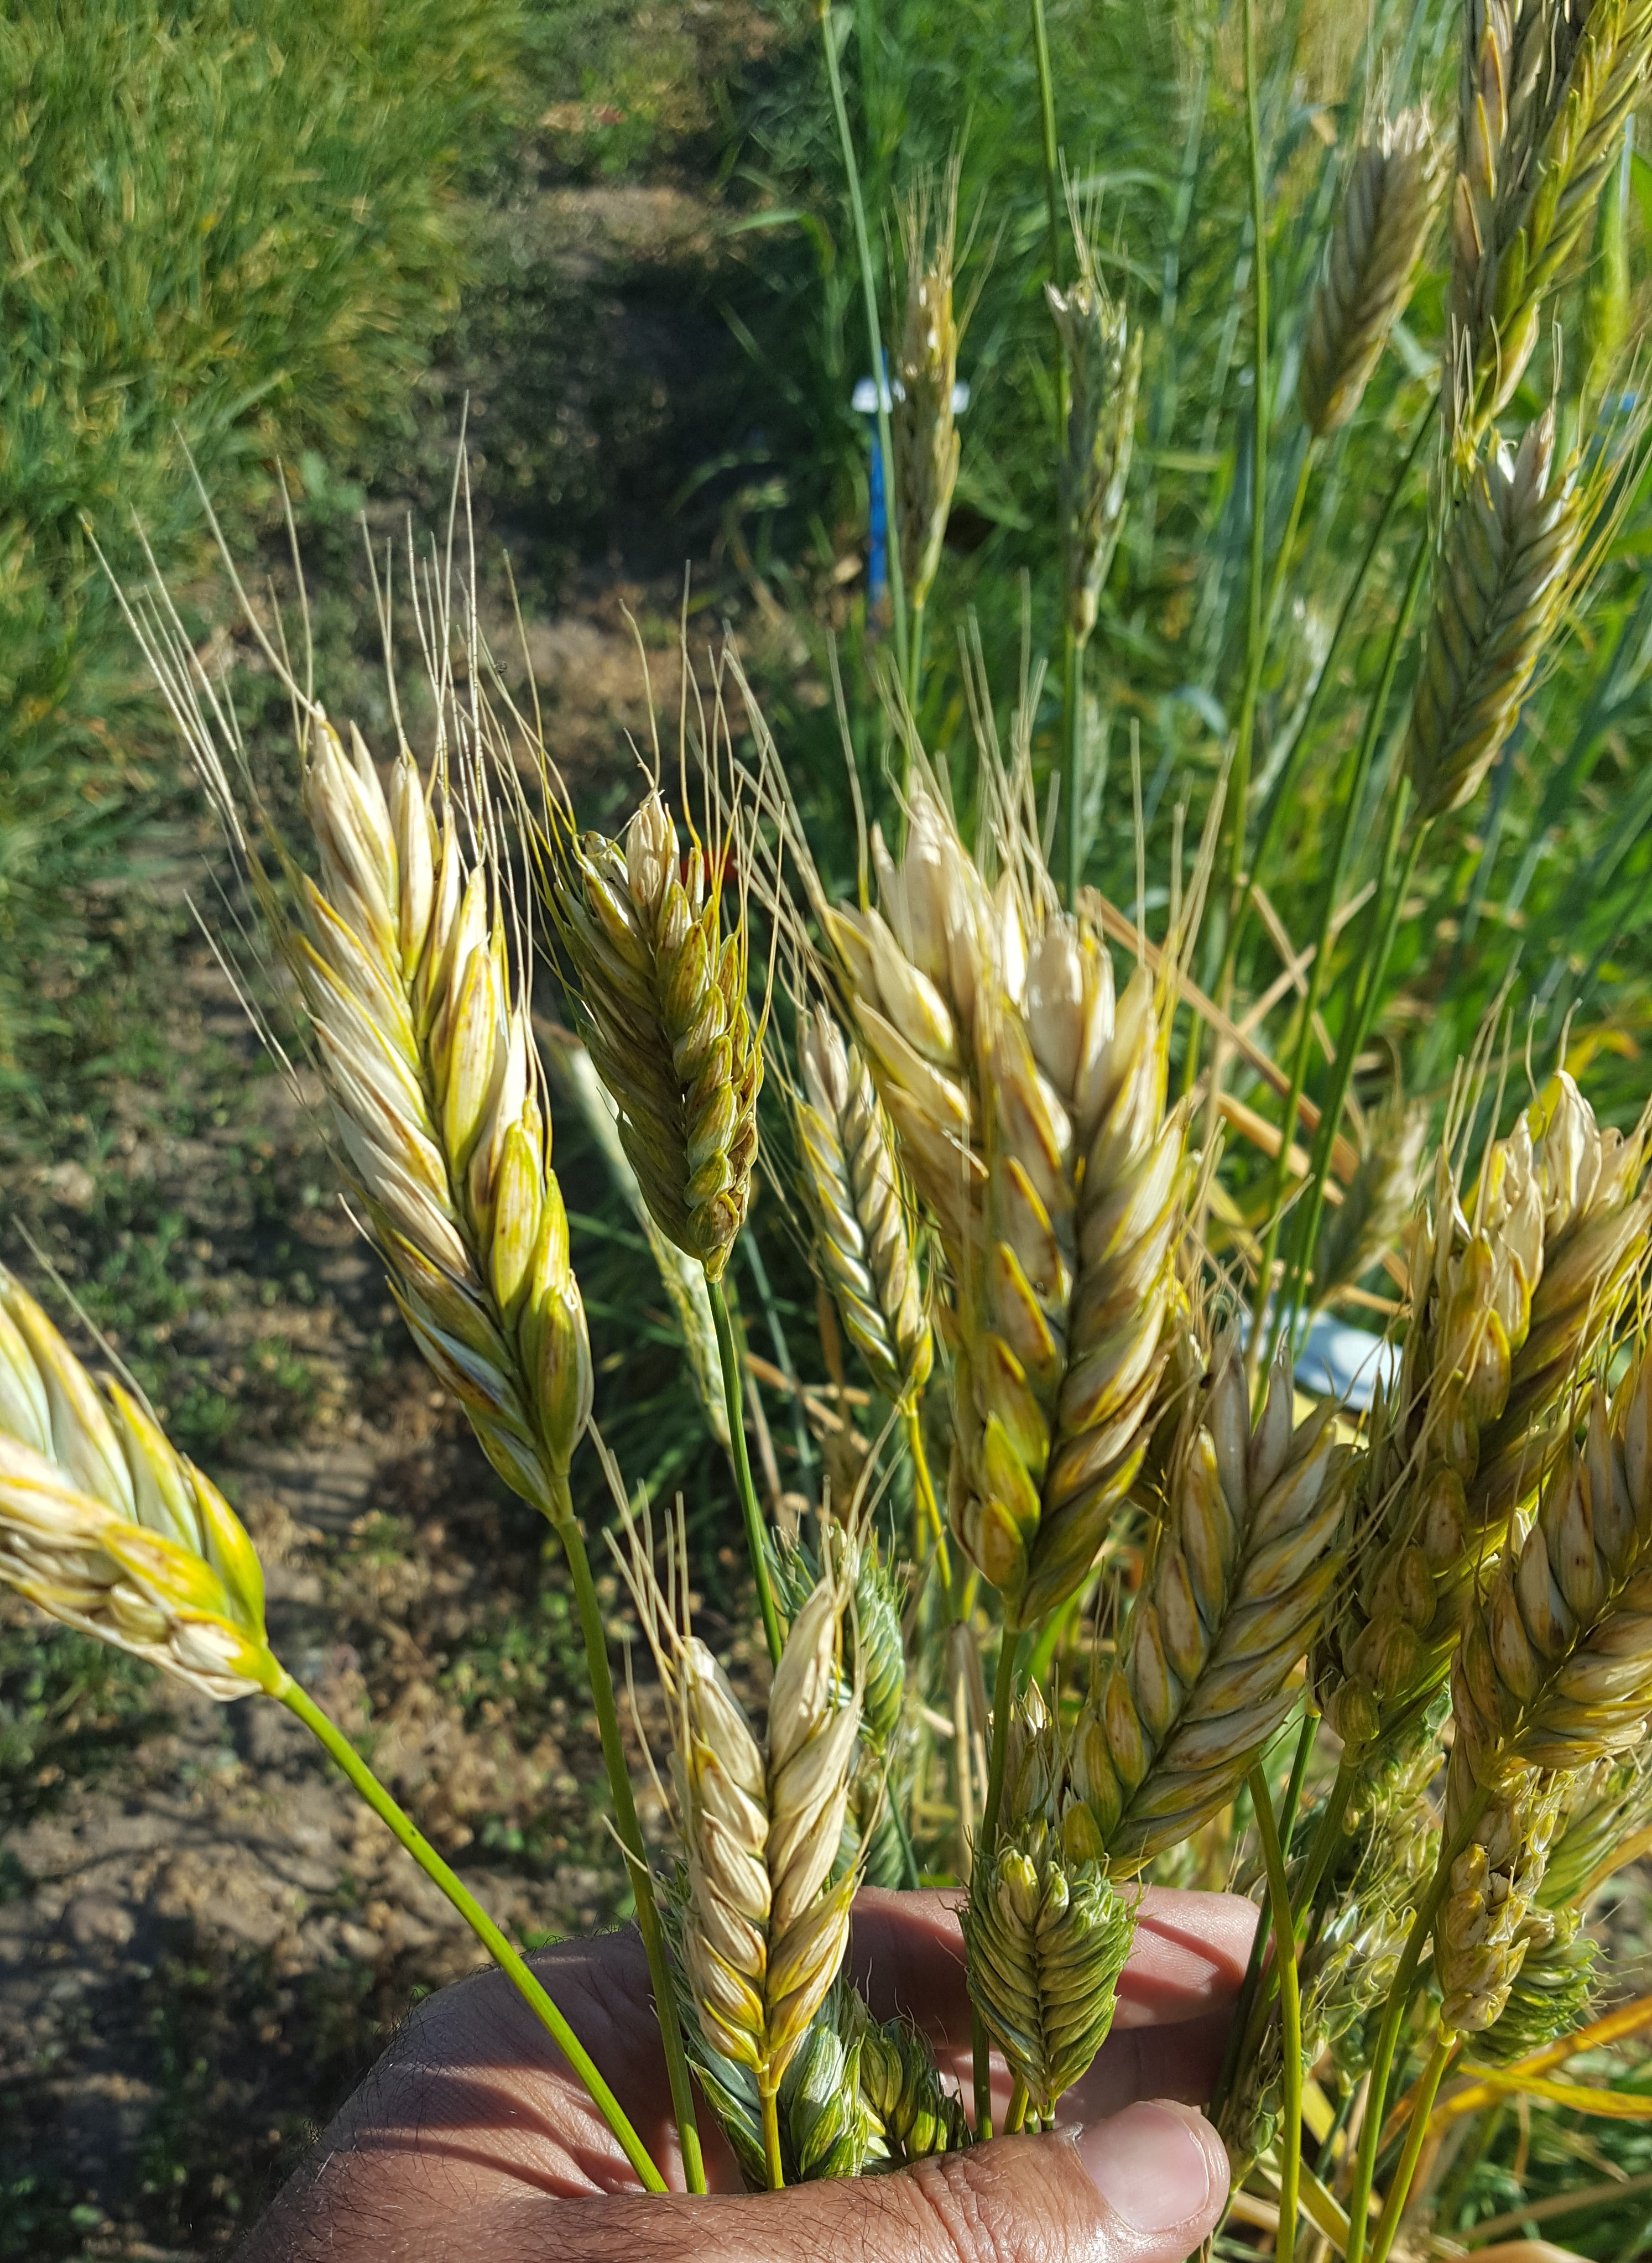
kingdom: Plantae
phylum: Tracheophyta
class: Liliopsida
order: Poales
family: Poaceae
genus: Triticum
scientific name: Triticum turgidum
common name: Rivet wheat
